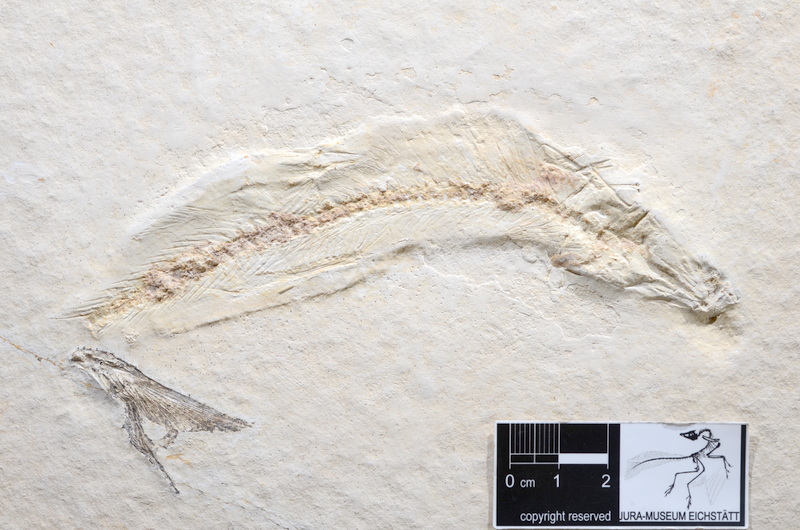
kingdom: Animalia
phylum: Chordata
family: Ascalaboidae
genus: Tharsis
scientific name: Tharsis dubius
